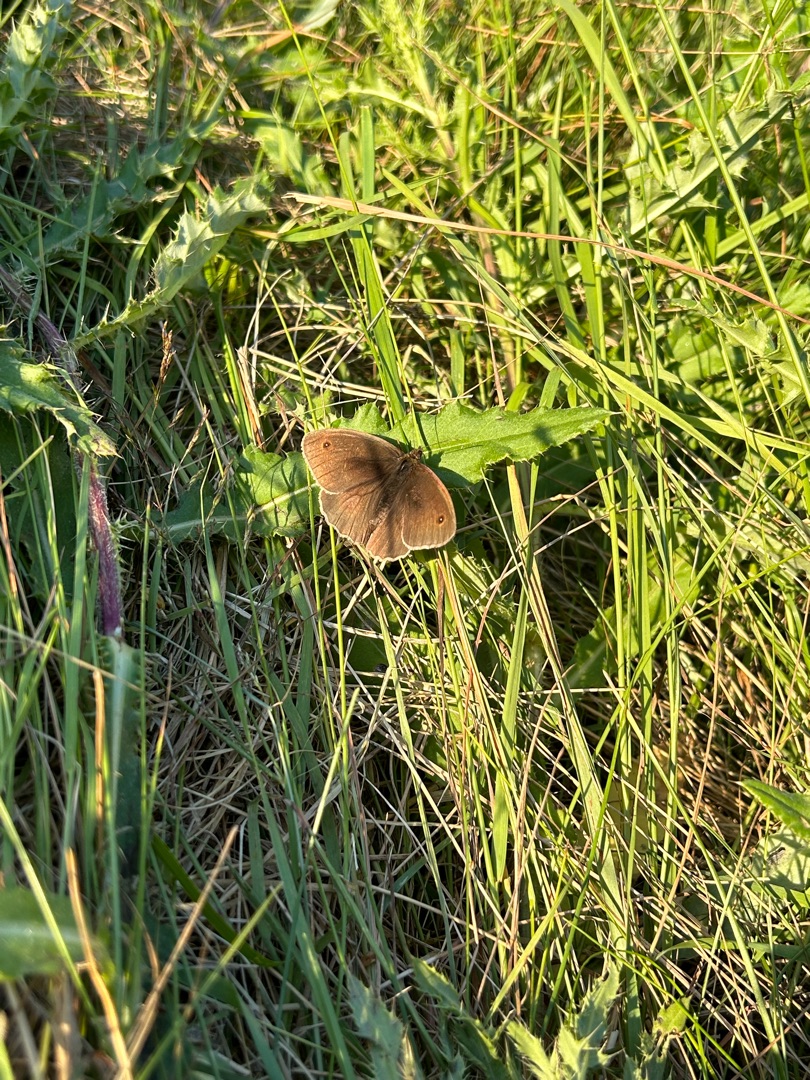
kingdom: Animalia
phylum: Arthropoda
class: Insecta
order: Lepidoptera
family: Nymphalidae
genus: Maniola
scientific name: Maniola jurtina
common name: Græsrandøje
